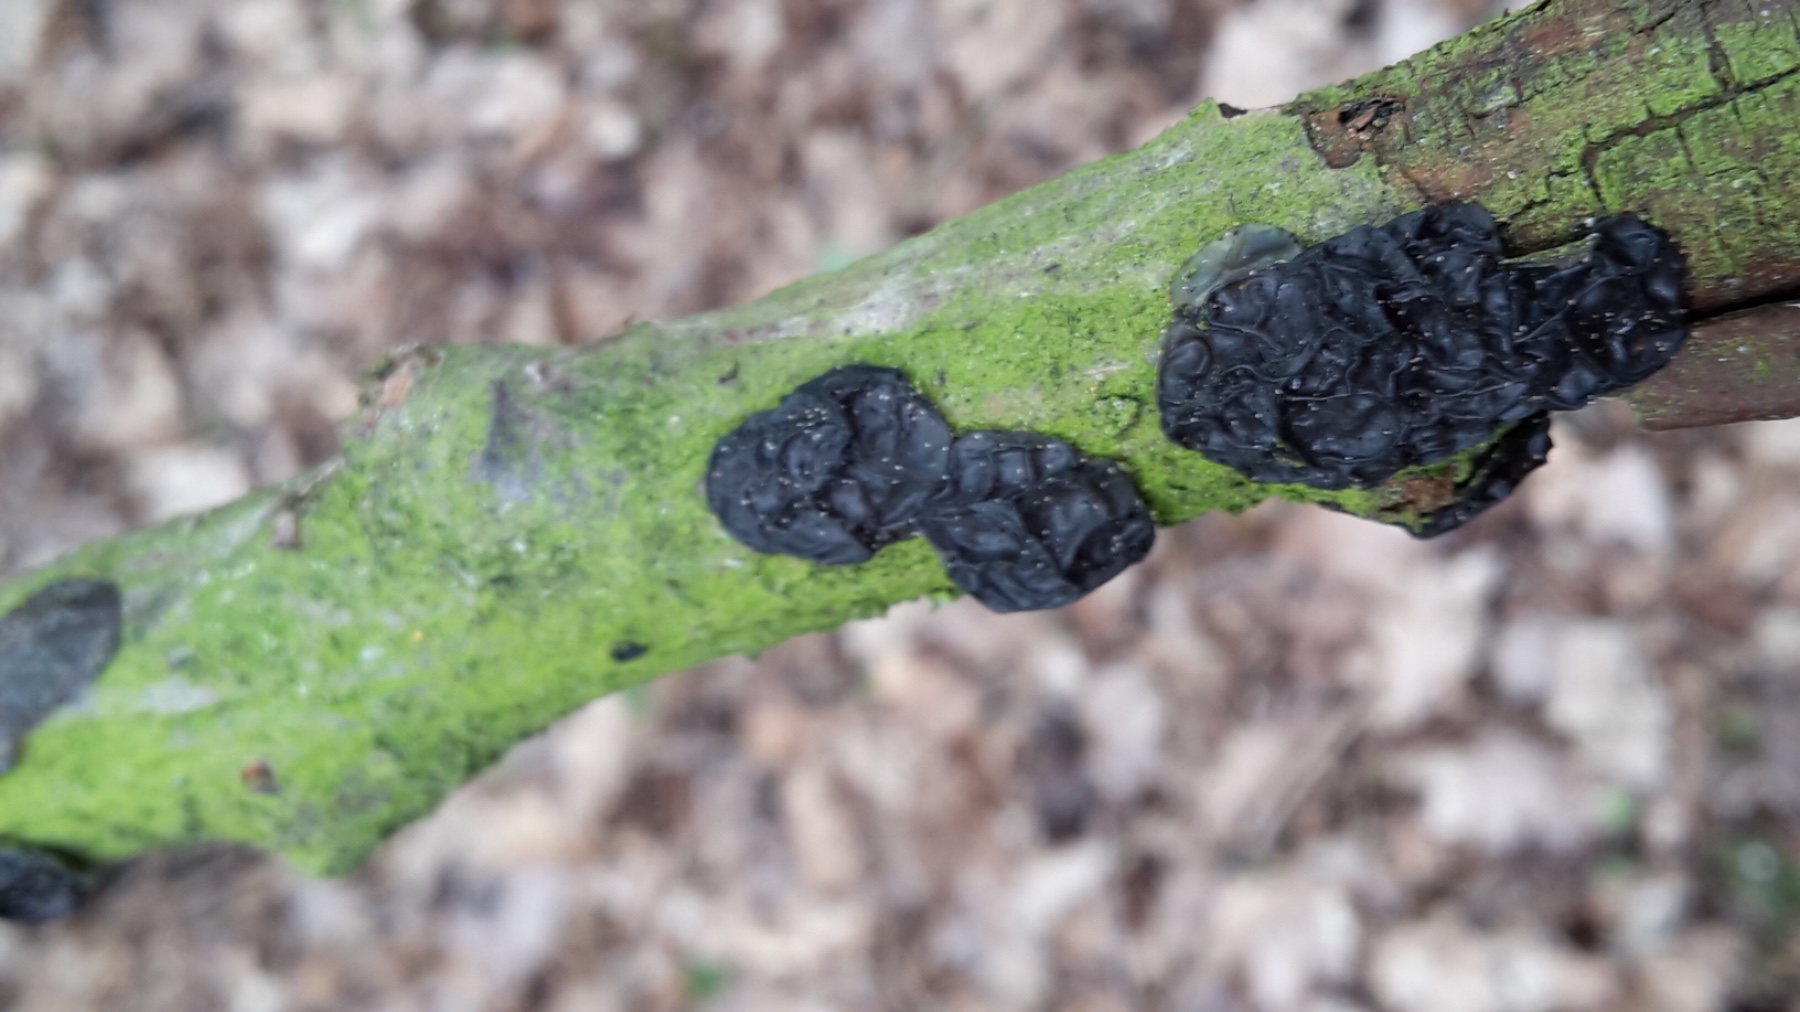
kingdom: Fungi
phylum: Basidiomycota
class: Agaricomycetes
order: Auriculariales
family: Auriculariaceae
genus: Exidia
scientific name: Exidia nigricans
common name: almindelig bævretop
